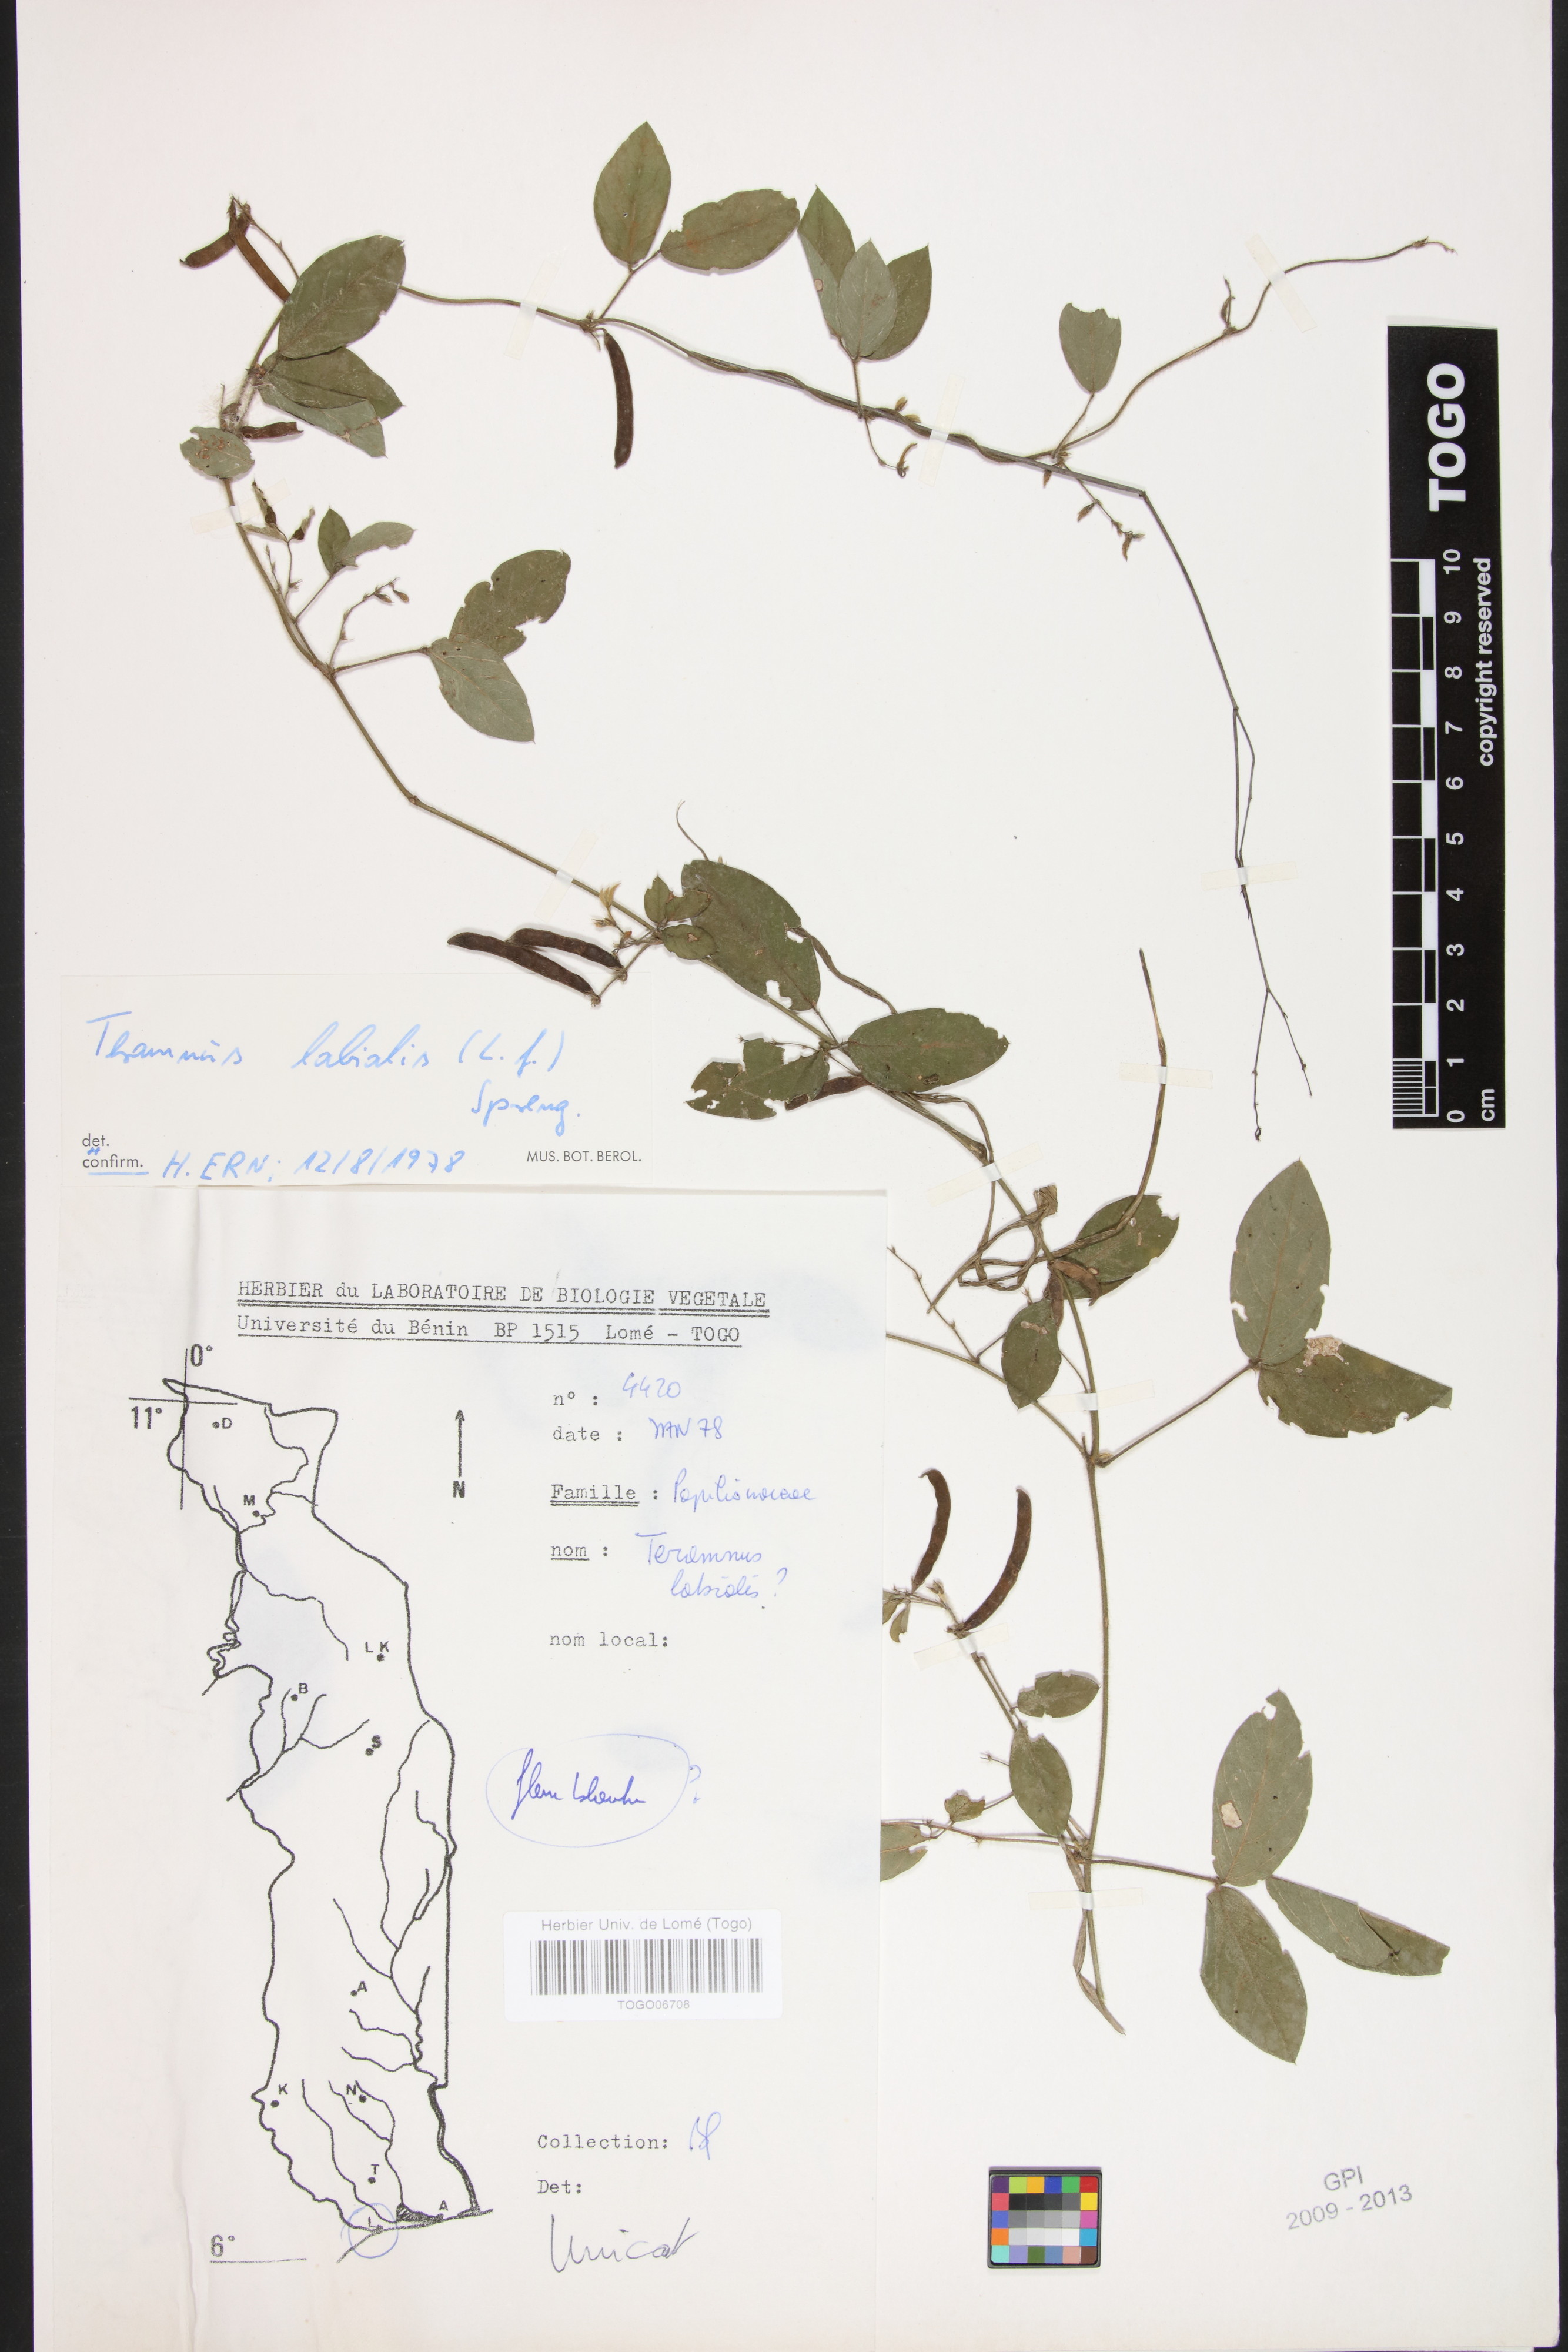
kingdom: Plantae
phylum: Tracheophyta
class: Magnoliopsida
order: Fabales
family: Fabaceae
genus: Teramnus
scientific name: Teramnus labialis
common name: Blue wiss
